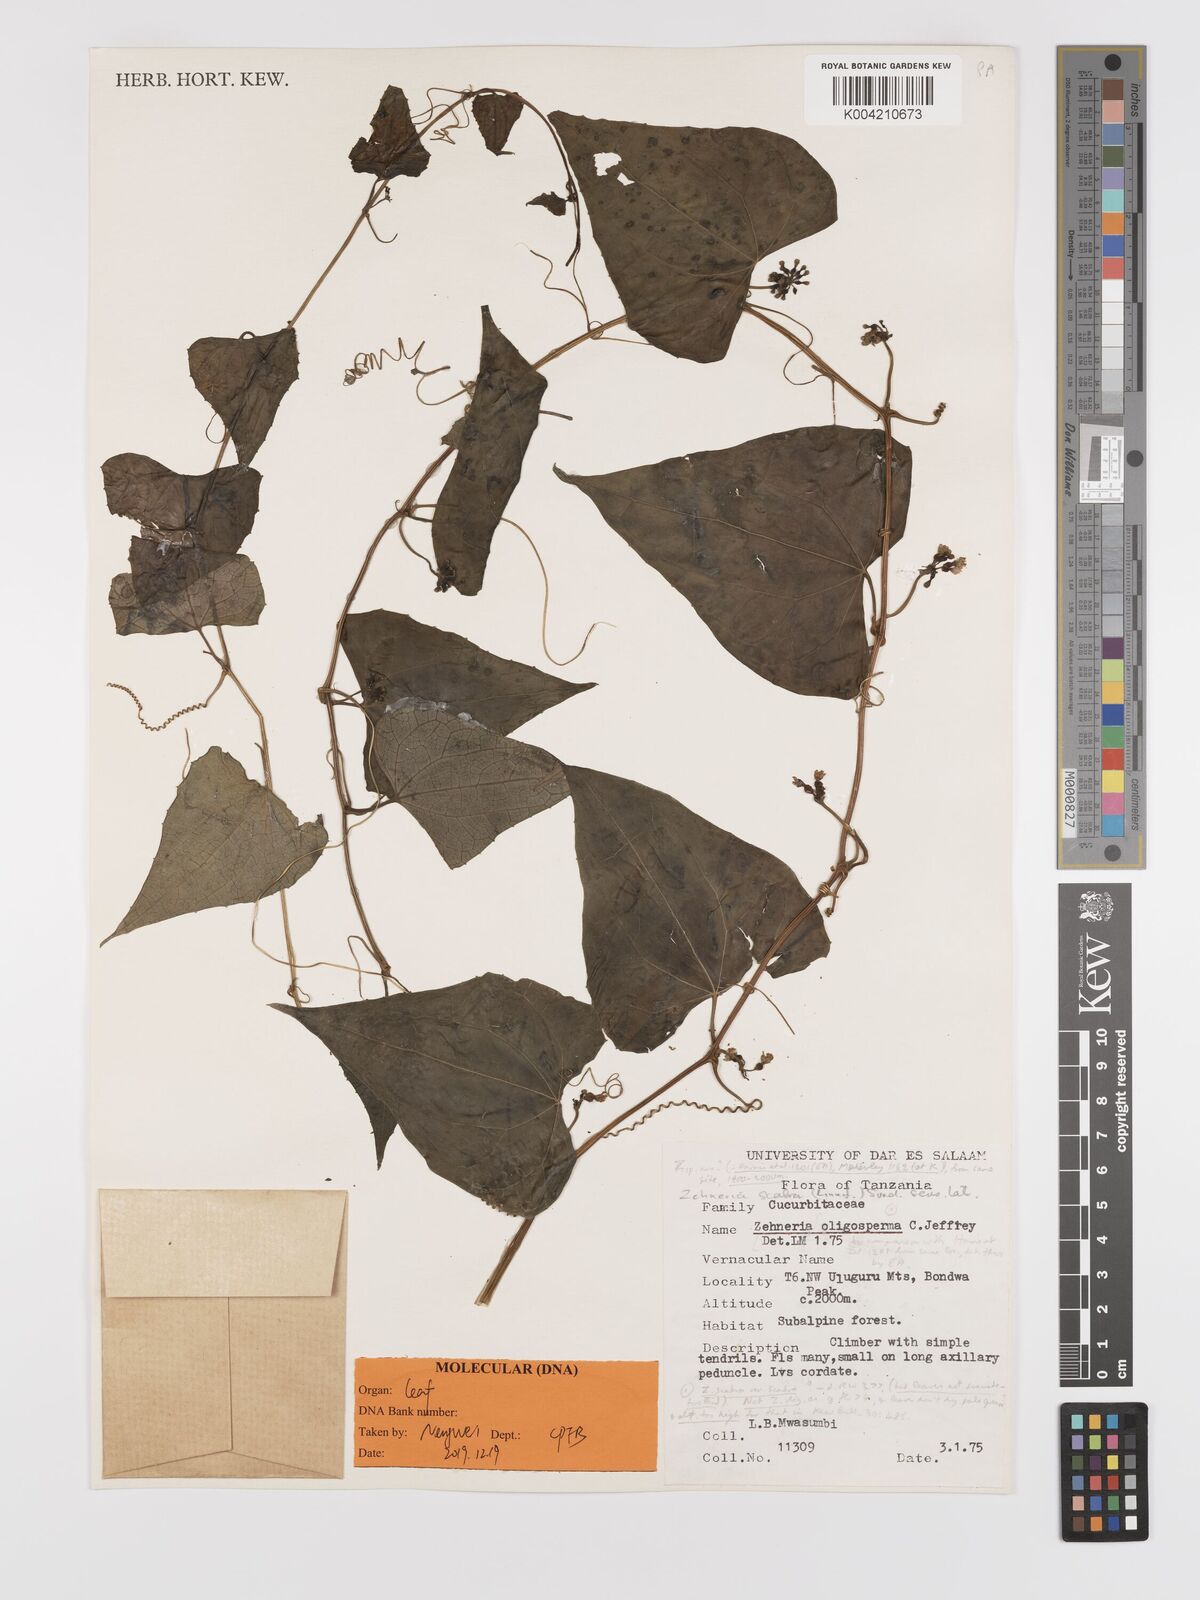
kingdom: Plantae
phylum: Tracheophyta
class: Magnoliopsida
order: Cucurbitales
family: Cucurbitaceae
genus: Zehneria
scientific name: Zehneria scabra
